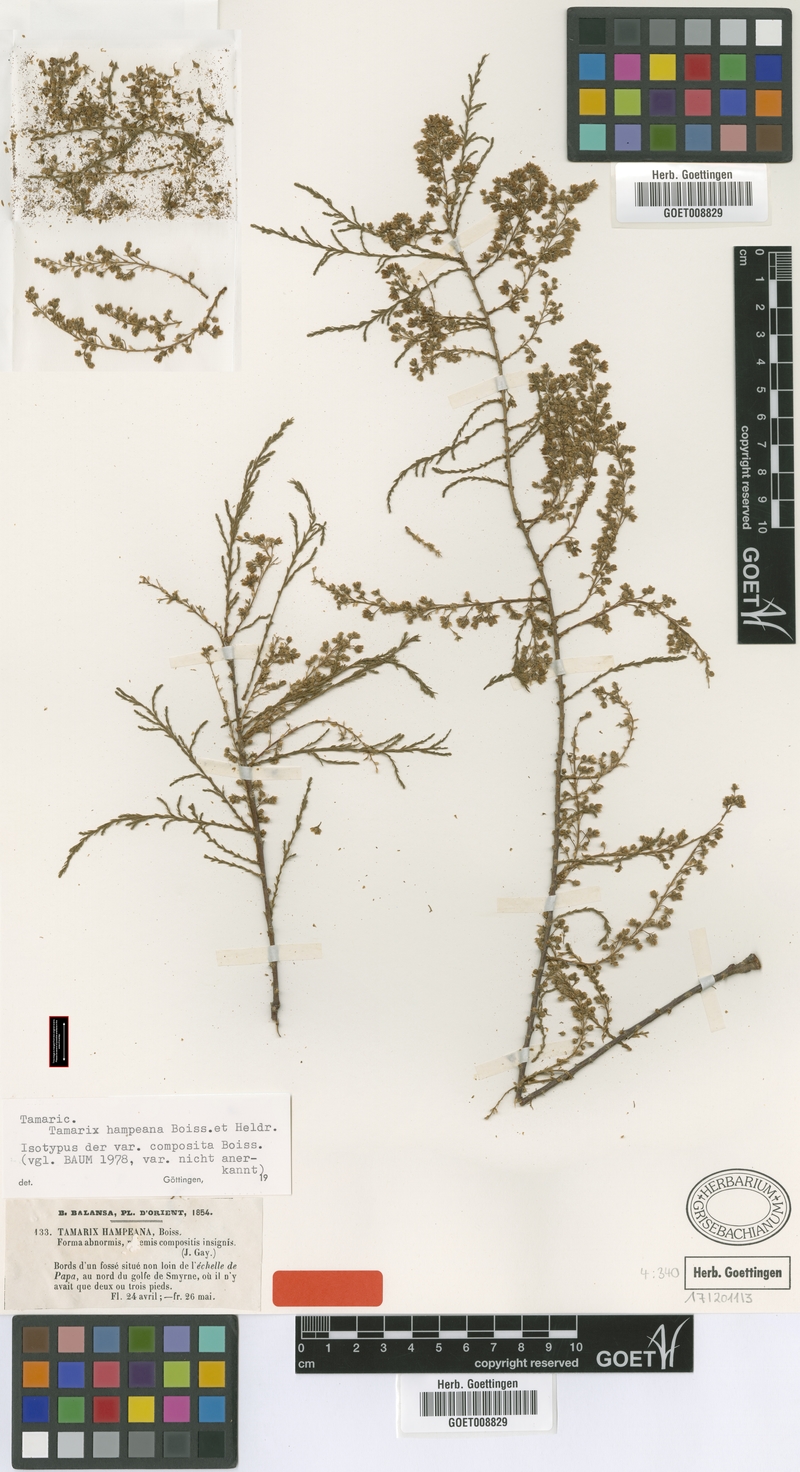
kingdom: Plantae
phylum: Tracheophyta
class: Magnoliopsida
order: Caryophyllales
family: Tamaricaceae
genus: Tamarix
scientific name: Tamarix hampeana
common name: Hampe’s tamarisk
